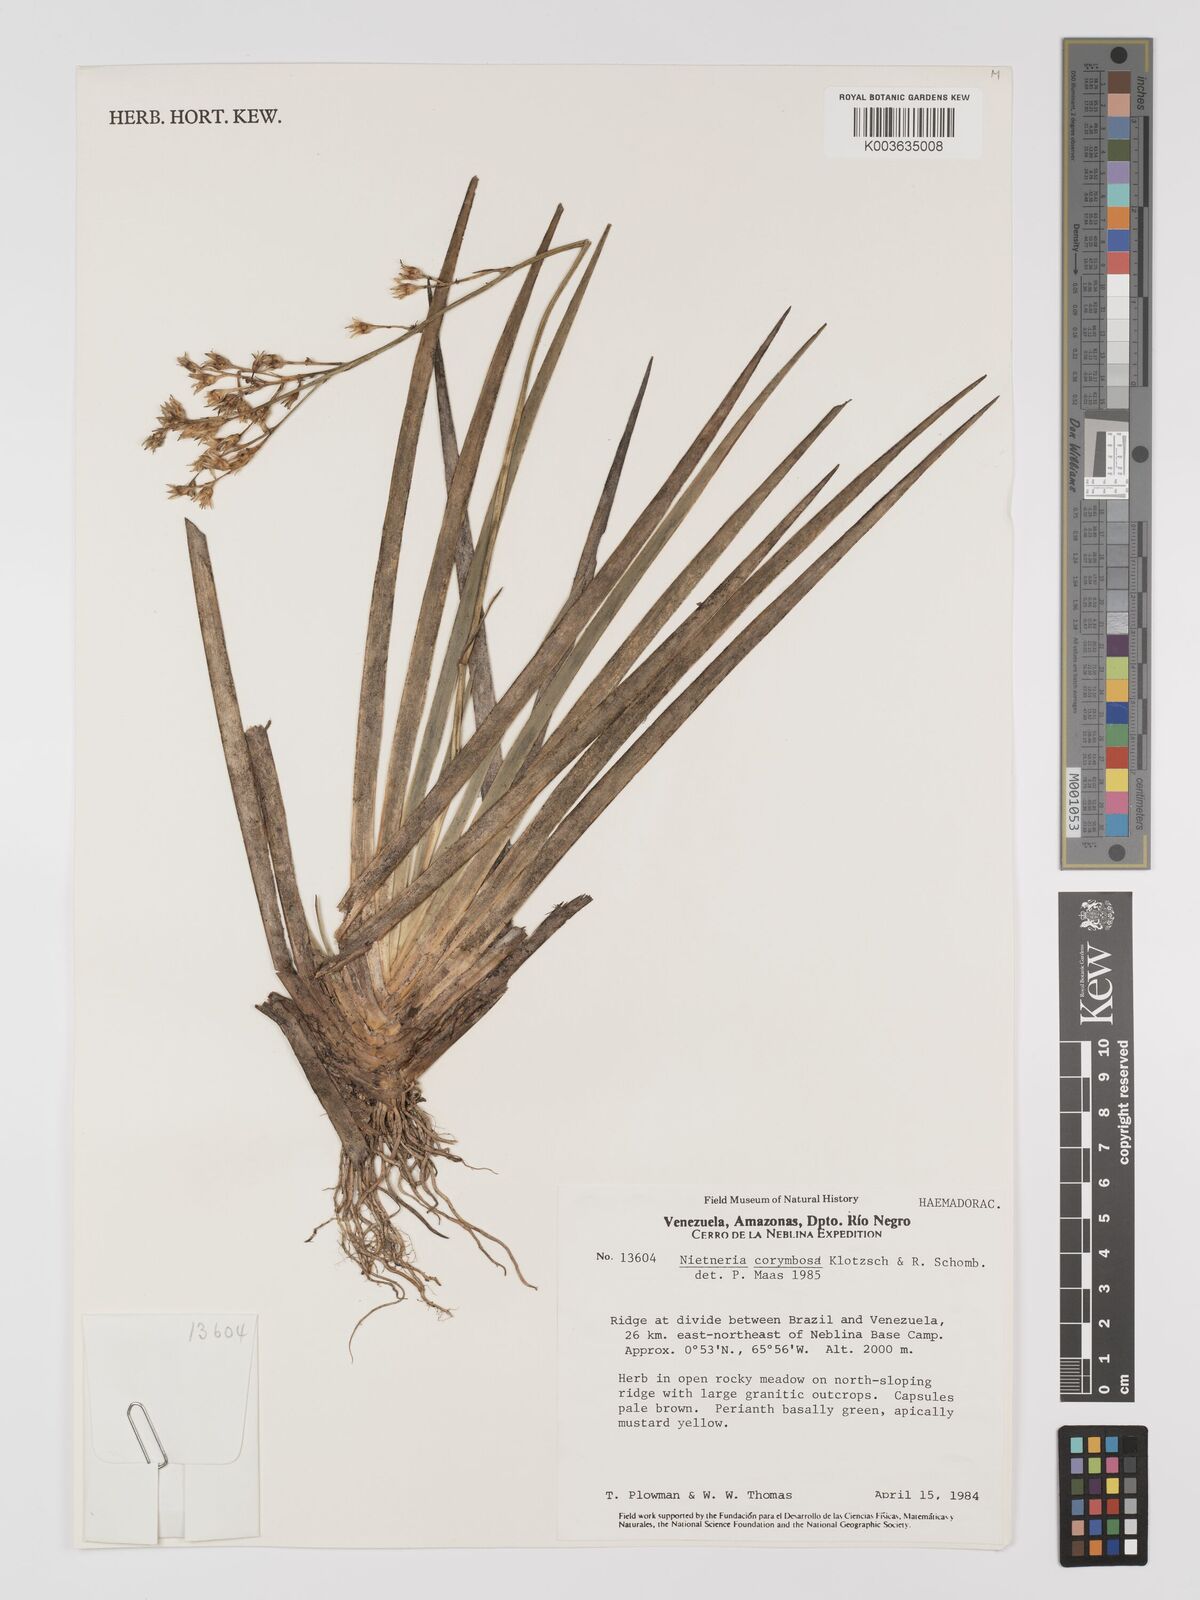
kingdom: Plantae
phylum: Tracheophyta
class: Liliopsida
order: Dioscoreales
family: Nartheciaceae
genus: Nietneria
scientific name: Nietneria corymbosa
